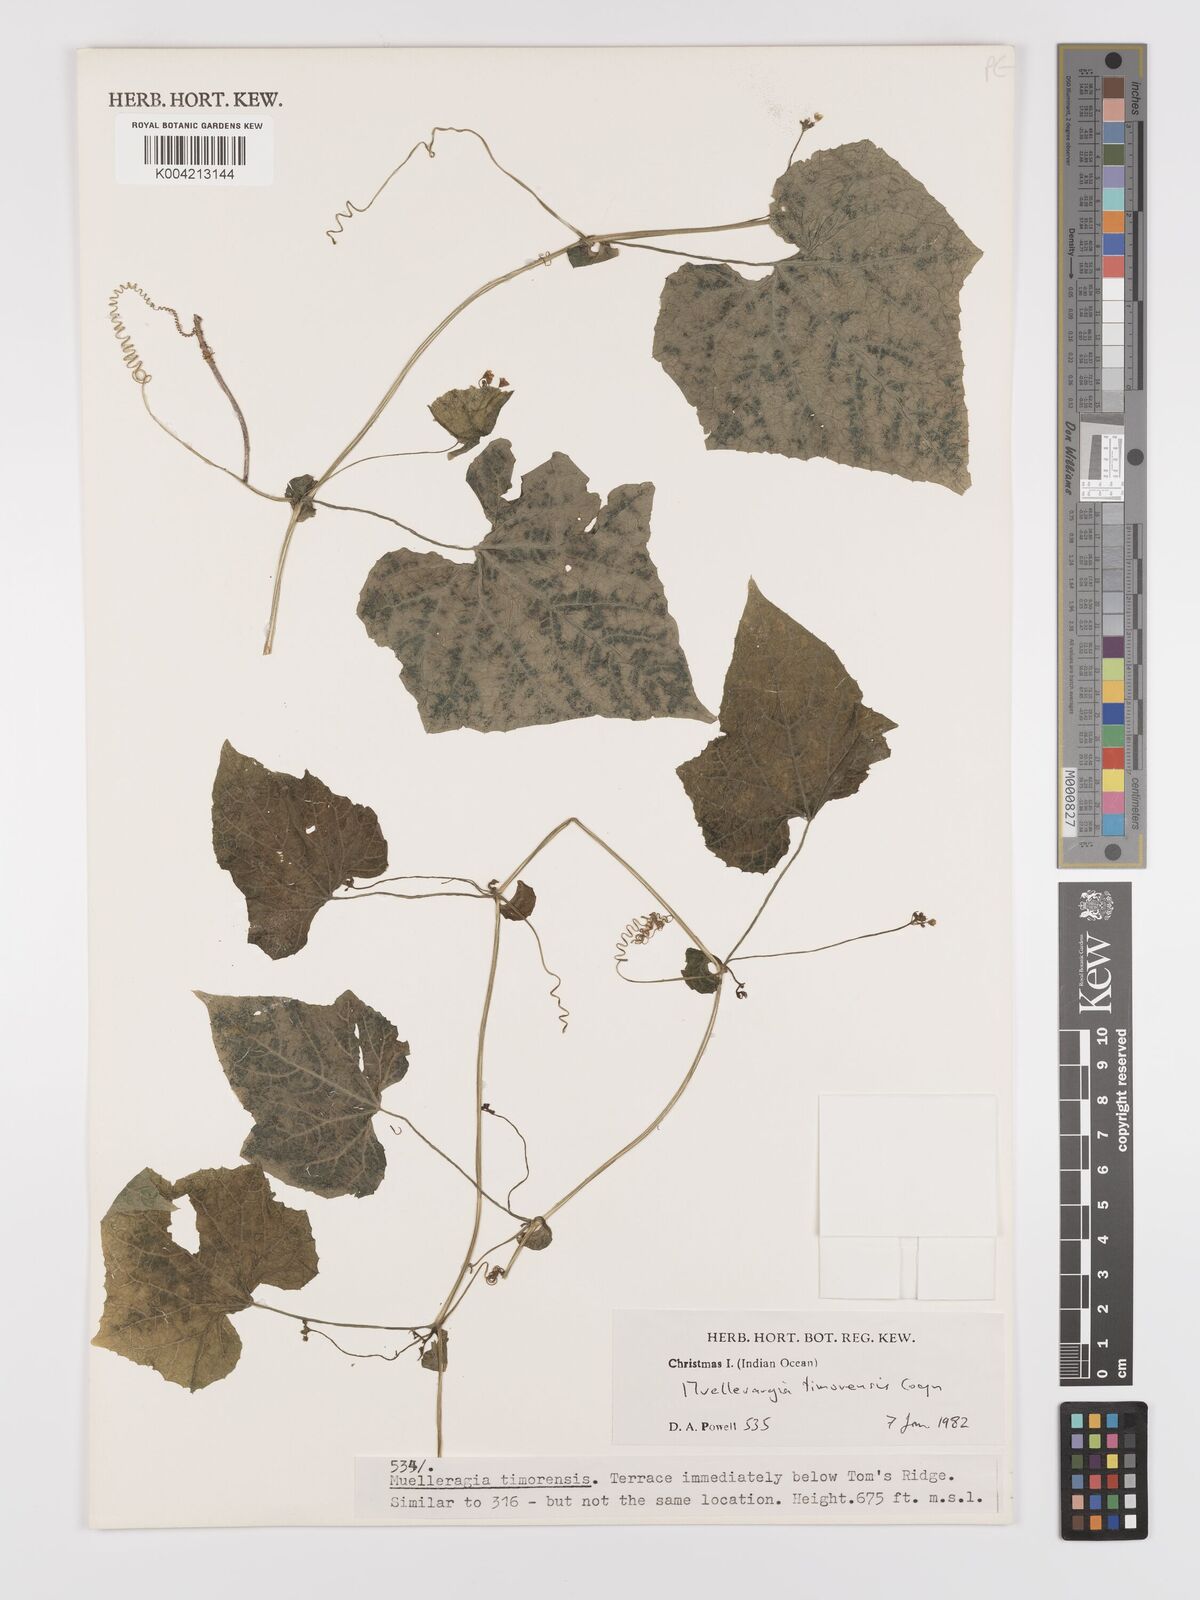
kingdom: Plantae
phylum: Tracheophyta
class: Magnoliopsida
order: Cucurbitales
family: Cucurbitaceae
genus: Muellerargia
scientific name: Muellerargia
